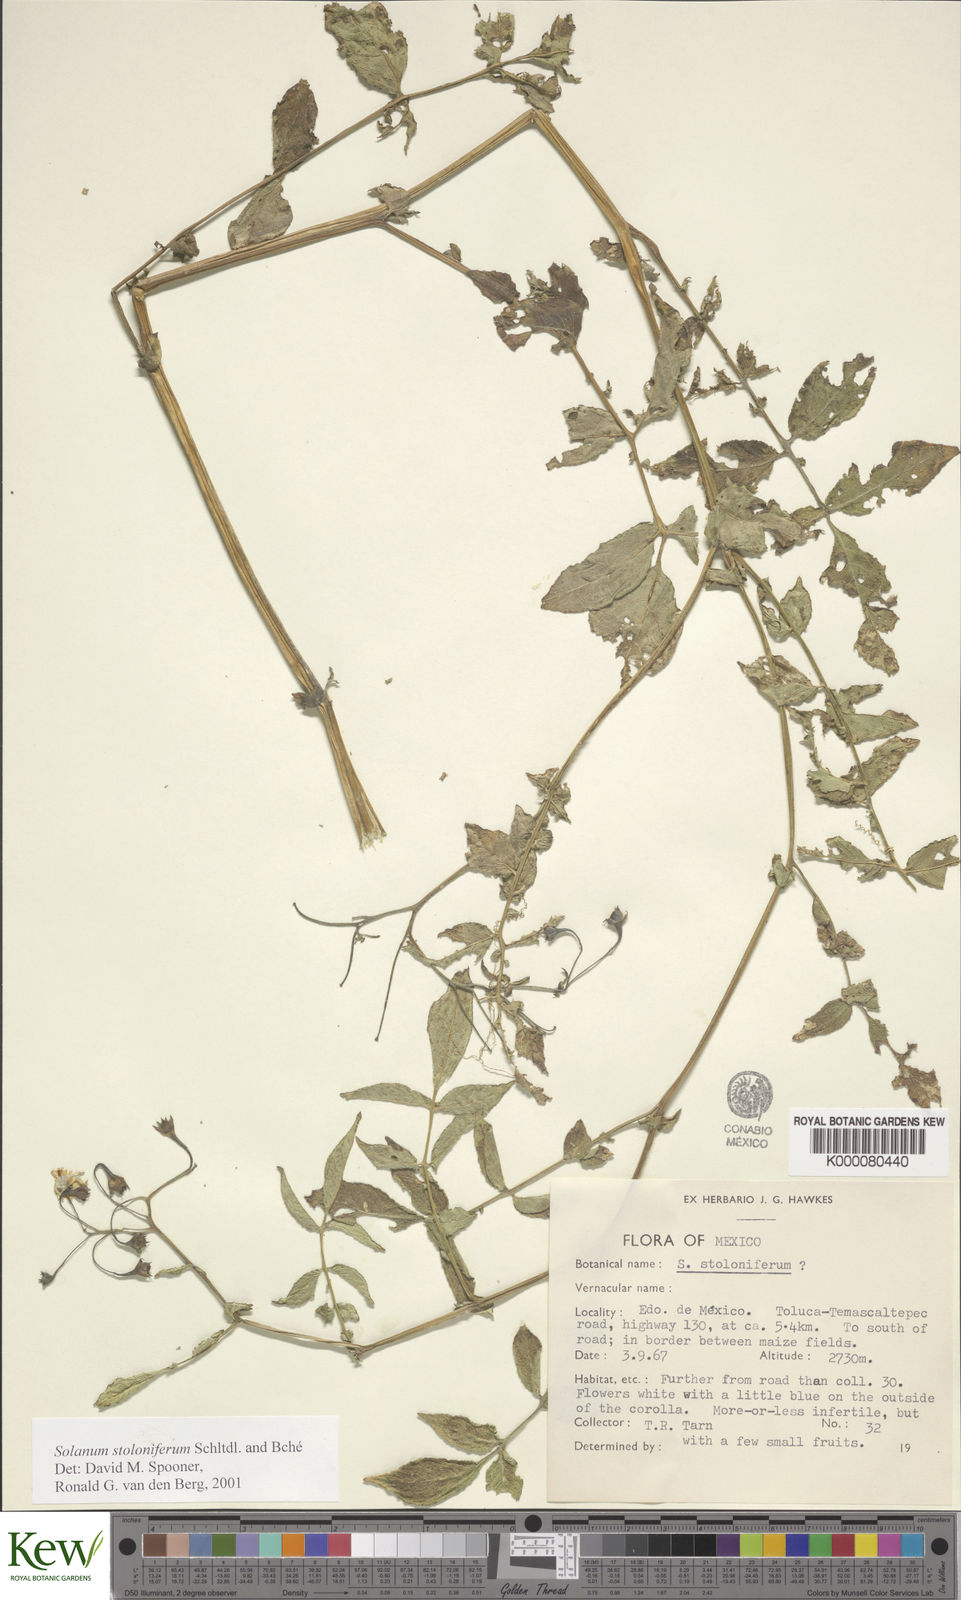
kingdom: Plantae
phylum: Tracheophyta
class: Magnoliopsida
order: Solanales
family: Solanaceae
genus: Solanum
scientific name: Solanum stoloniferum
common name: Fendler's nighshade
